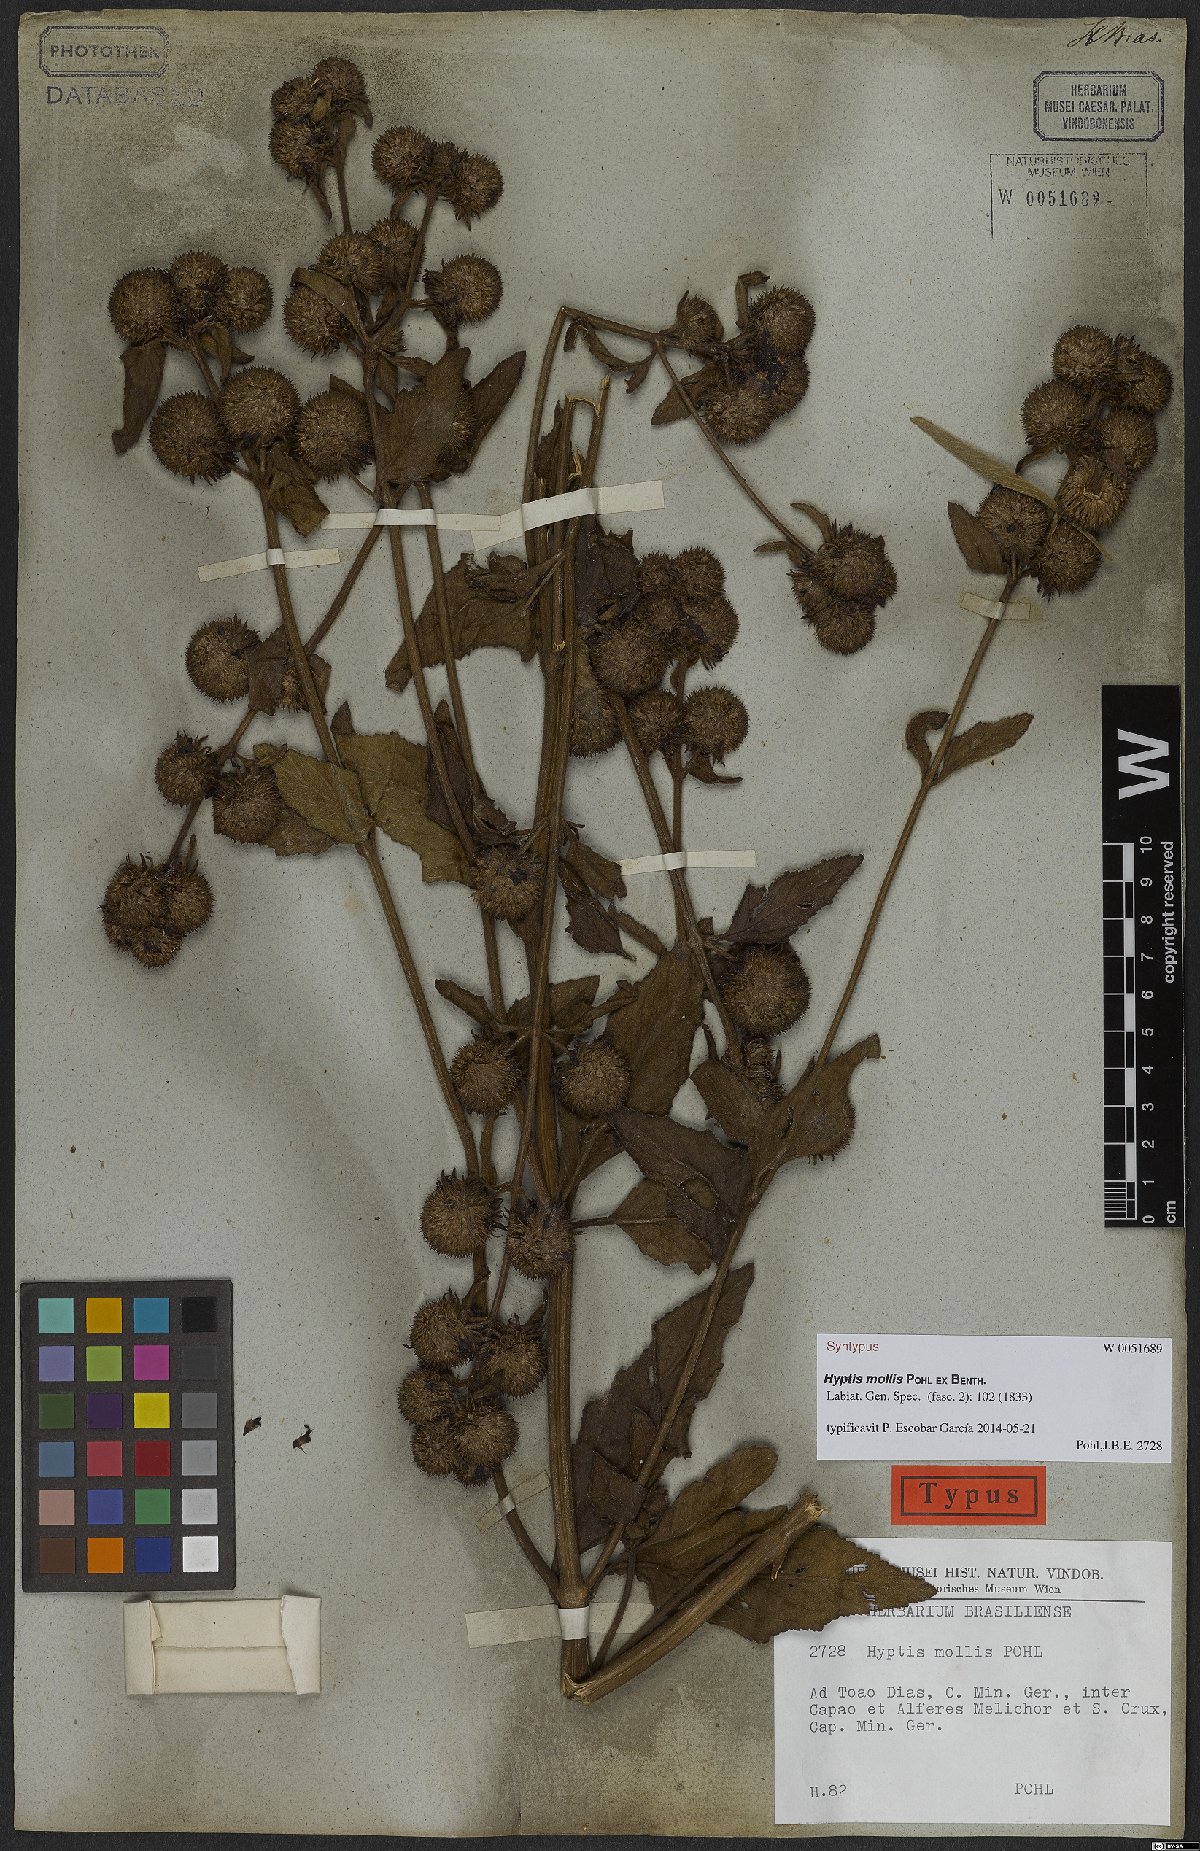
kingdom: Plantae
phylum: Tracheophyta
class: Magnoliopsida
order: Lamiales
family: Lamiaceae
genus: Hyptis
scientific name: Hyptis mollis
